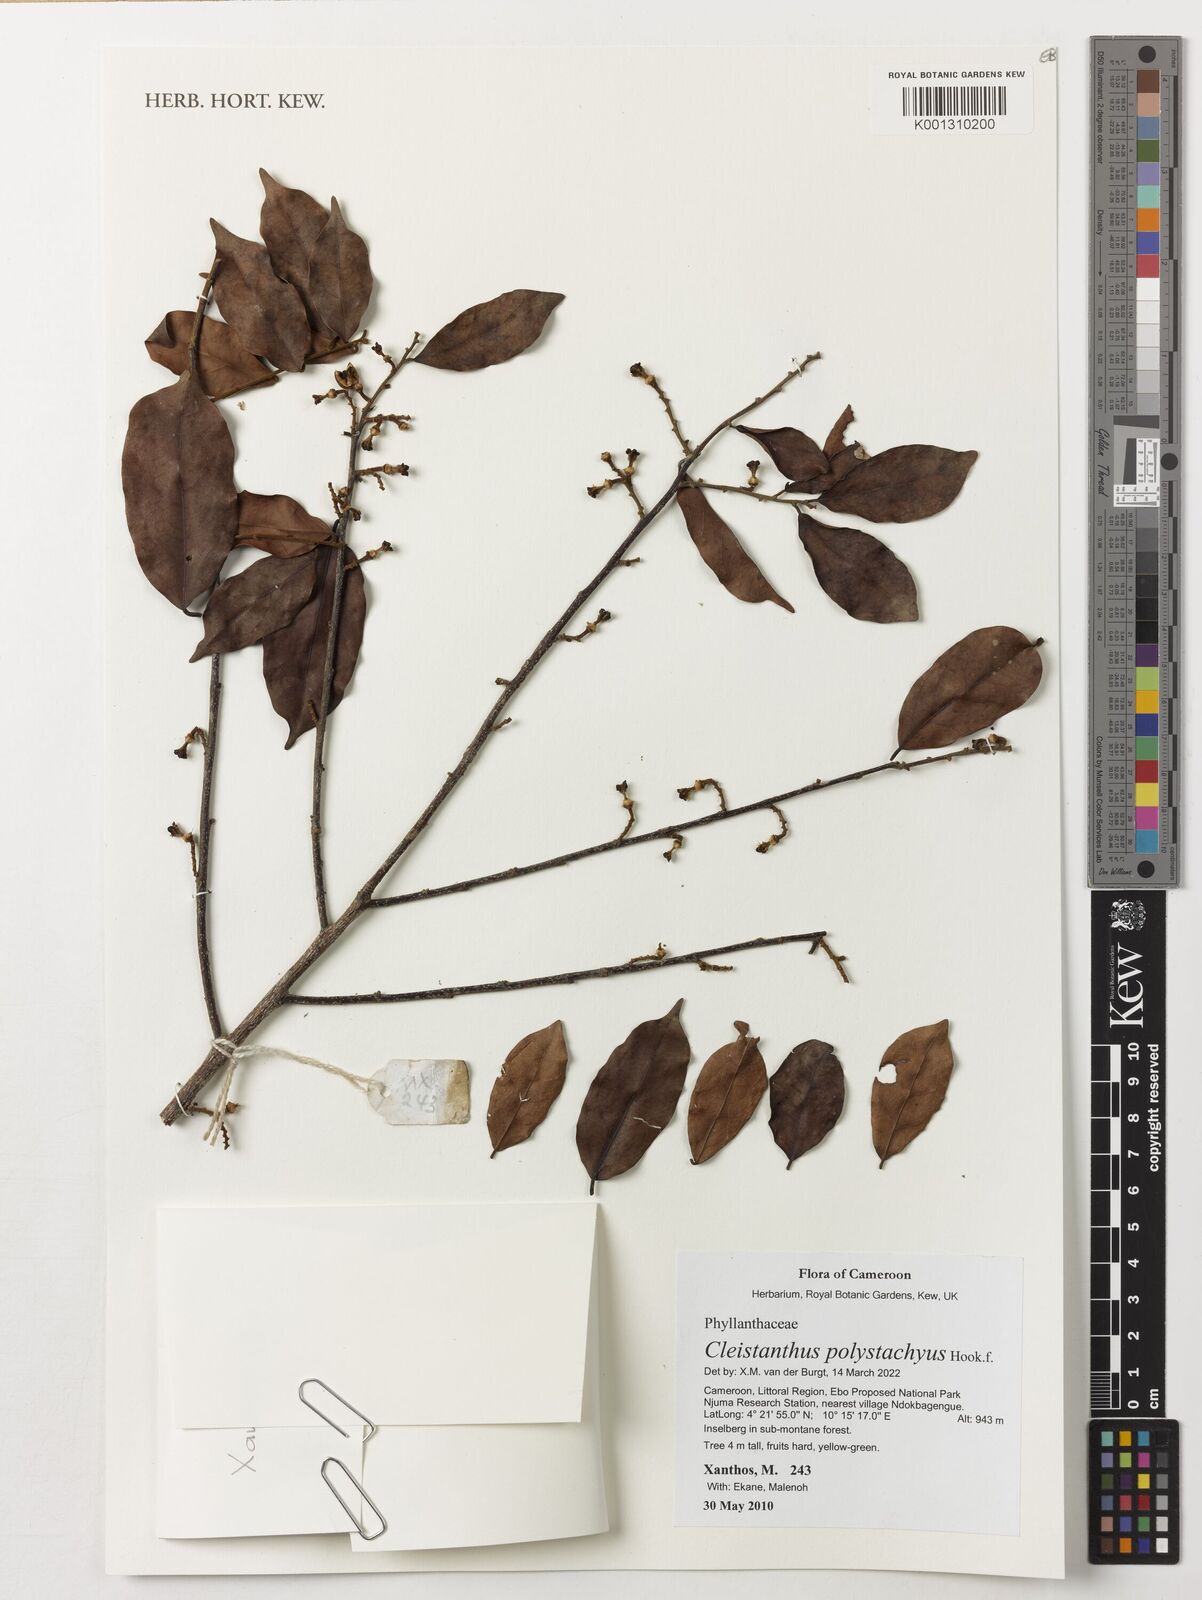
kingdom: Plantae
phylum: Tracheophyta
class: Magnoliopsida
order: Malpighiales
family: Phyllanthaceae
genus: Cleistanthus
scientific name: Cleistanthus polystachyus
